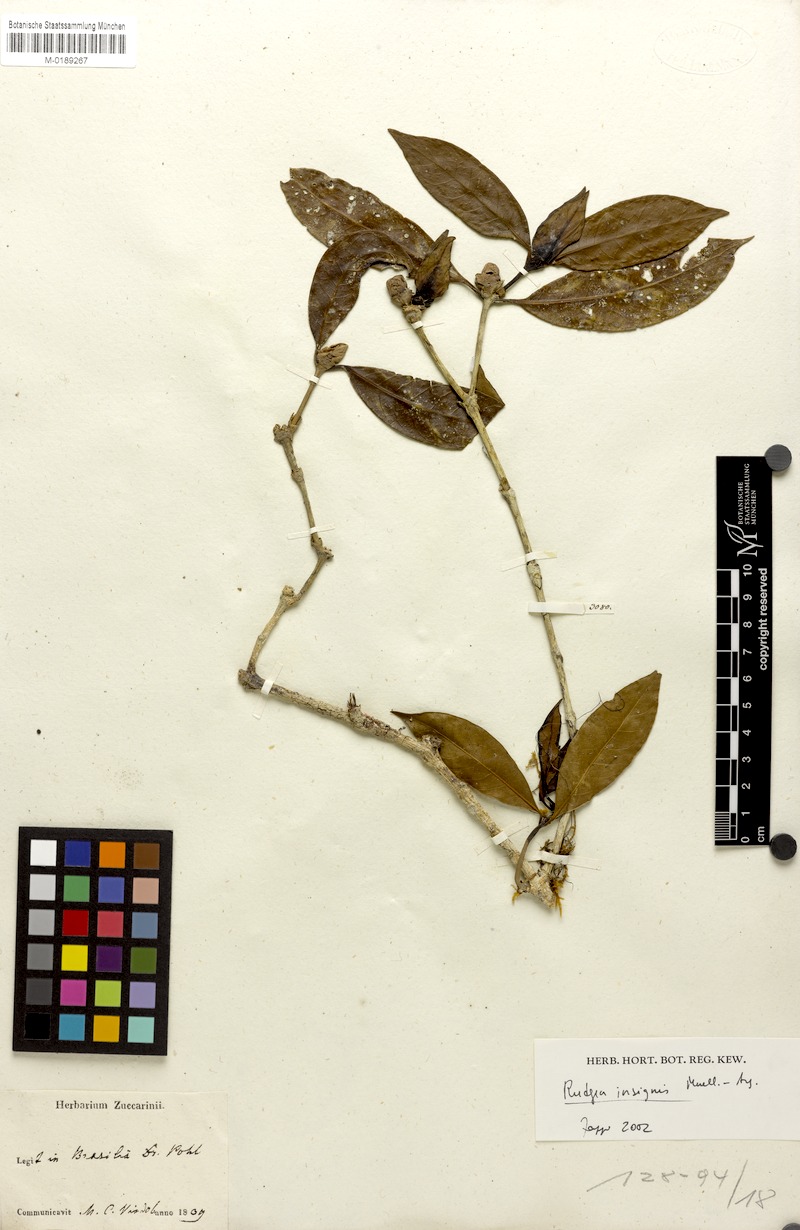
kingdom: Plantae
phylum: Tracheophyta
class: Magnoliopsida
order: Gentianales
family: Rubiaceae
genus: Rudgea
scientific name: Rudgea insignis
